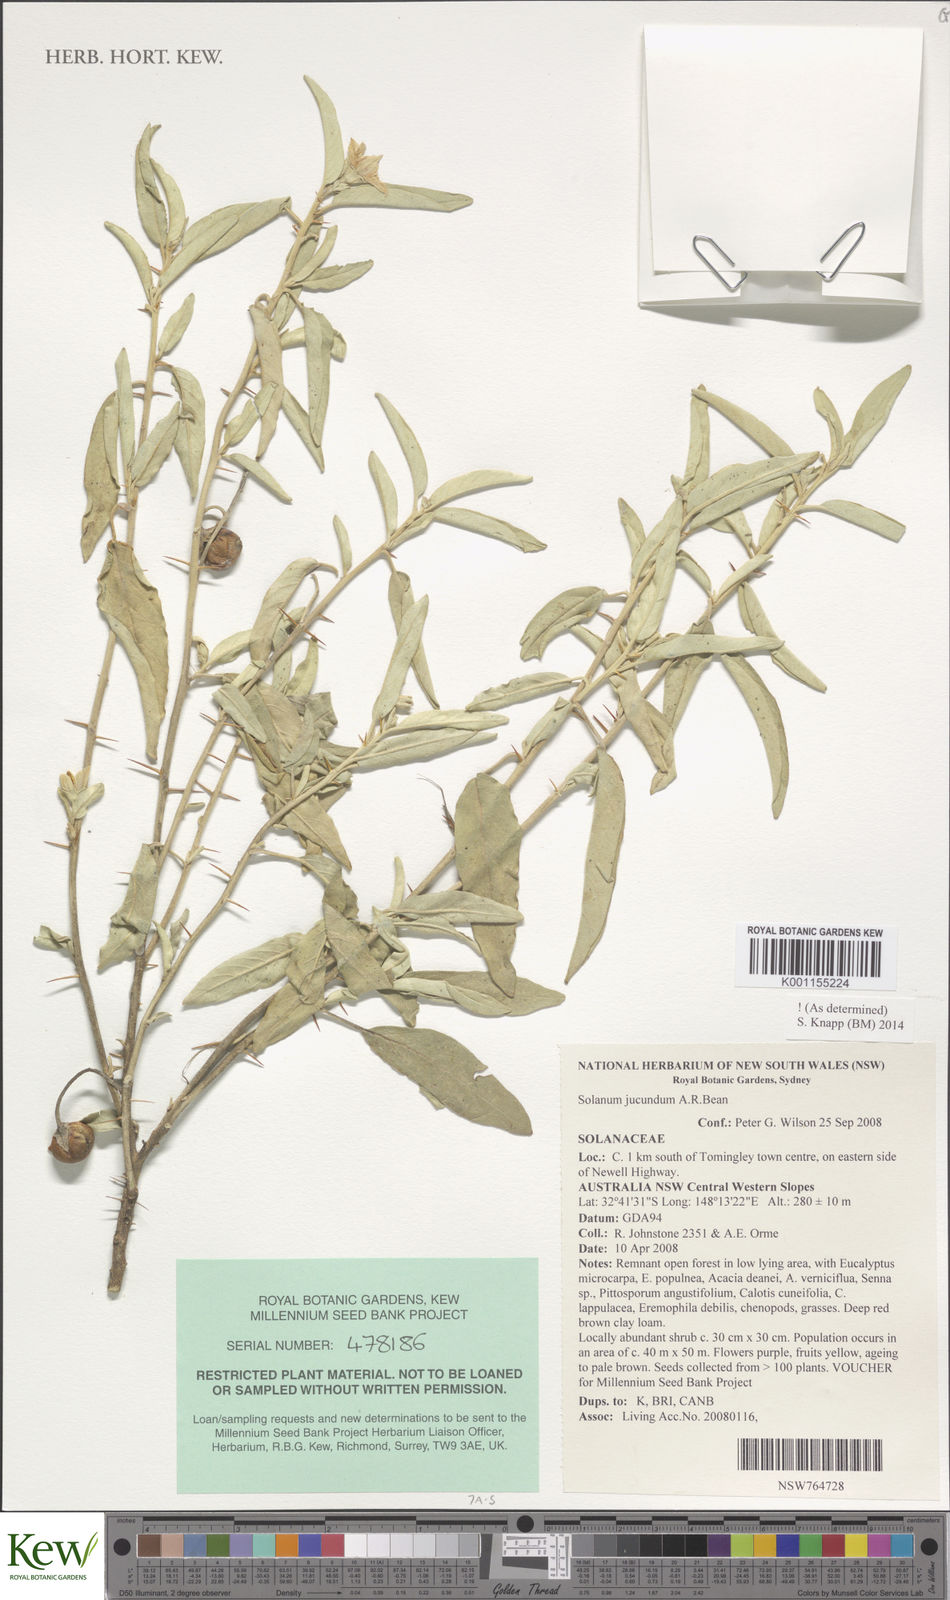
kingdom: Plantae
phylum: Tracheophyta
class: Magnoliopsida
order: Solanales
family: Solanaceae
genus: Solanum
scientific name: Solanum jucundum
